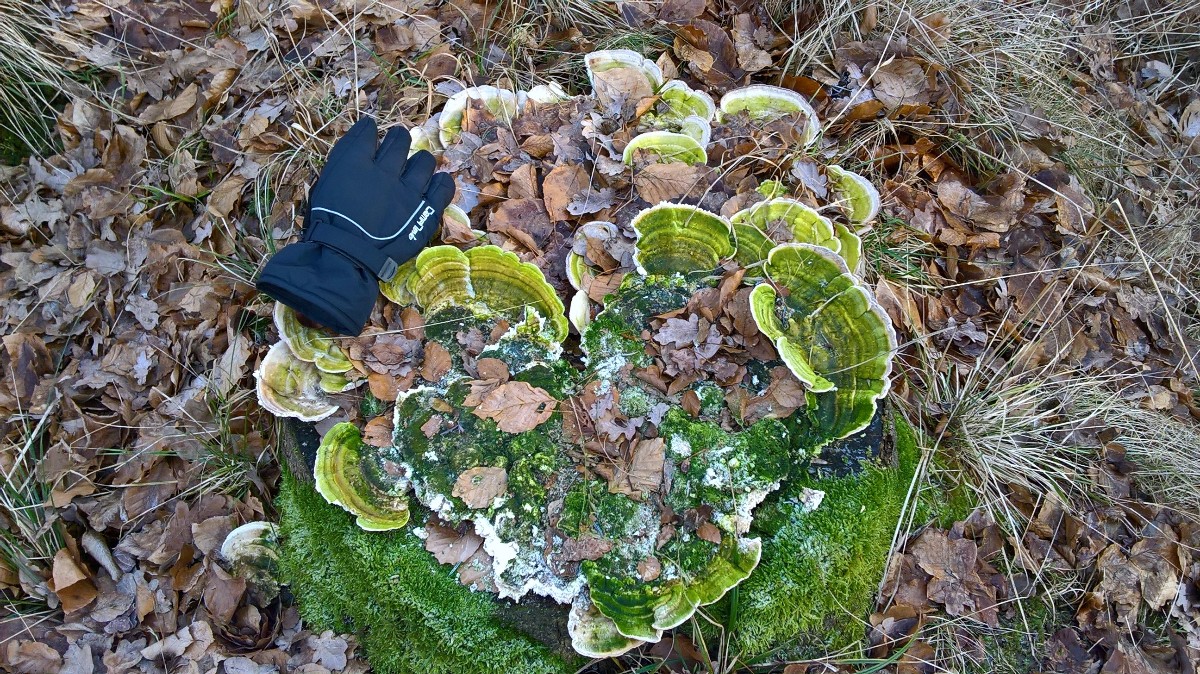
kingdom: Fungi
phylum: Basidiomycota
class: Agaricomycetes
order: Polyporales
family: Polyporaceae
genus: Trametes
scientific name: Trametes gibbosa
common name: puklet læderporesvamp
